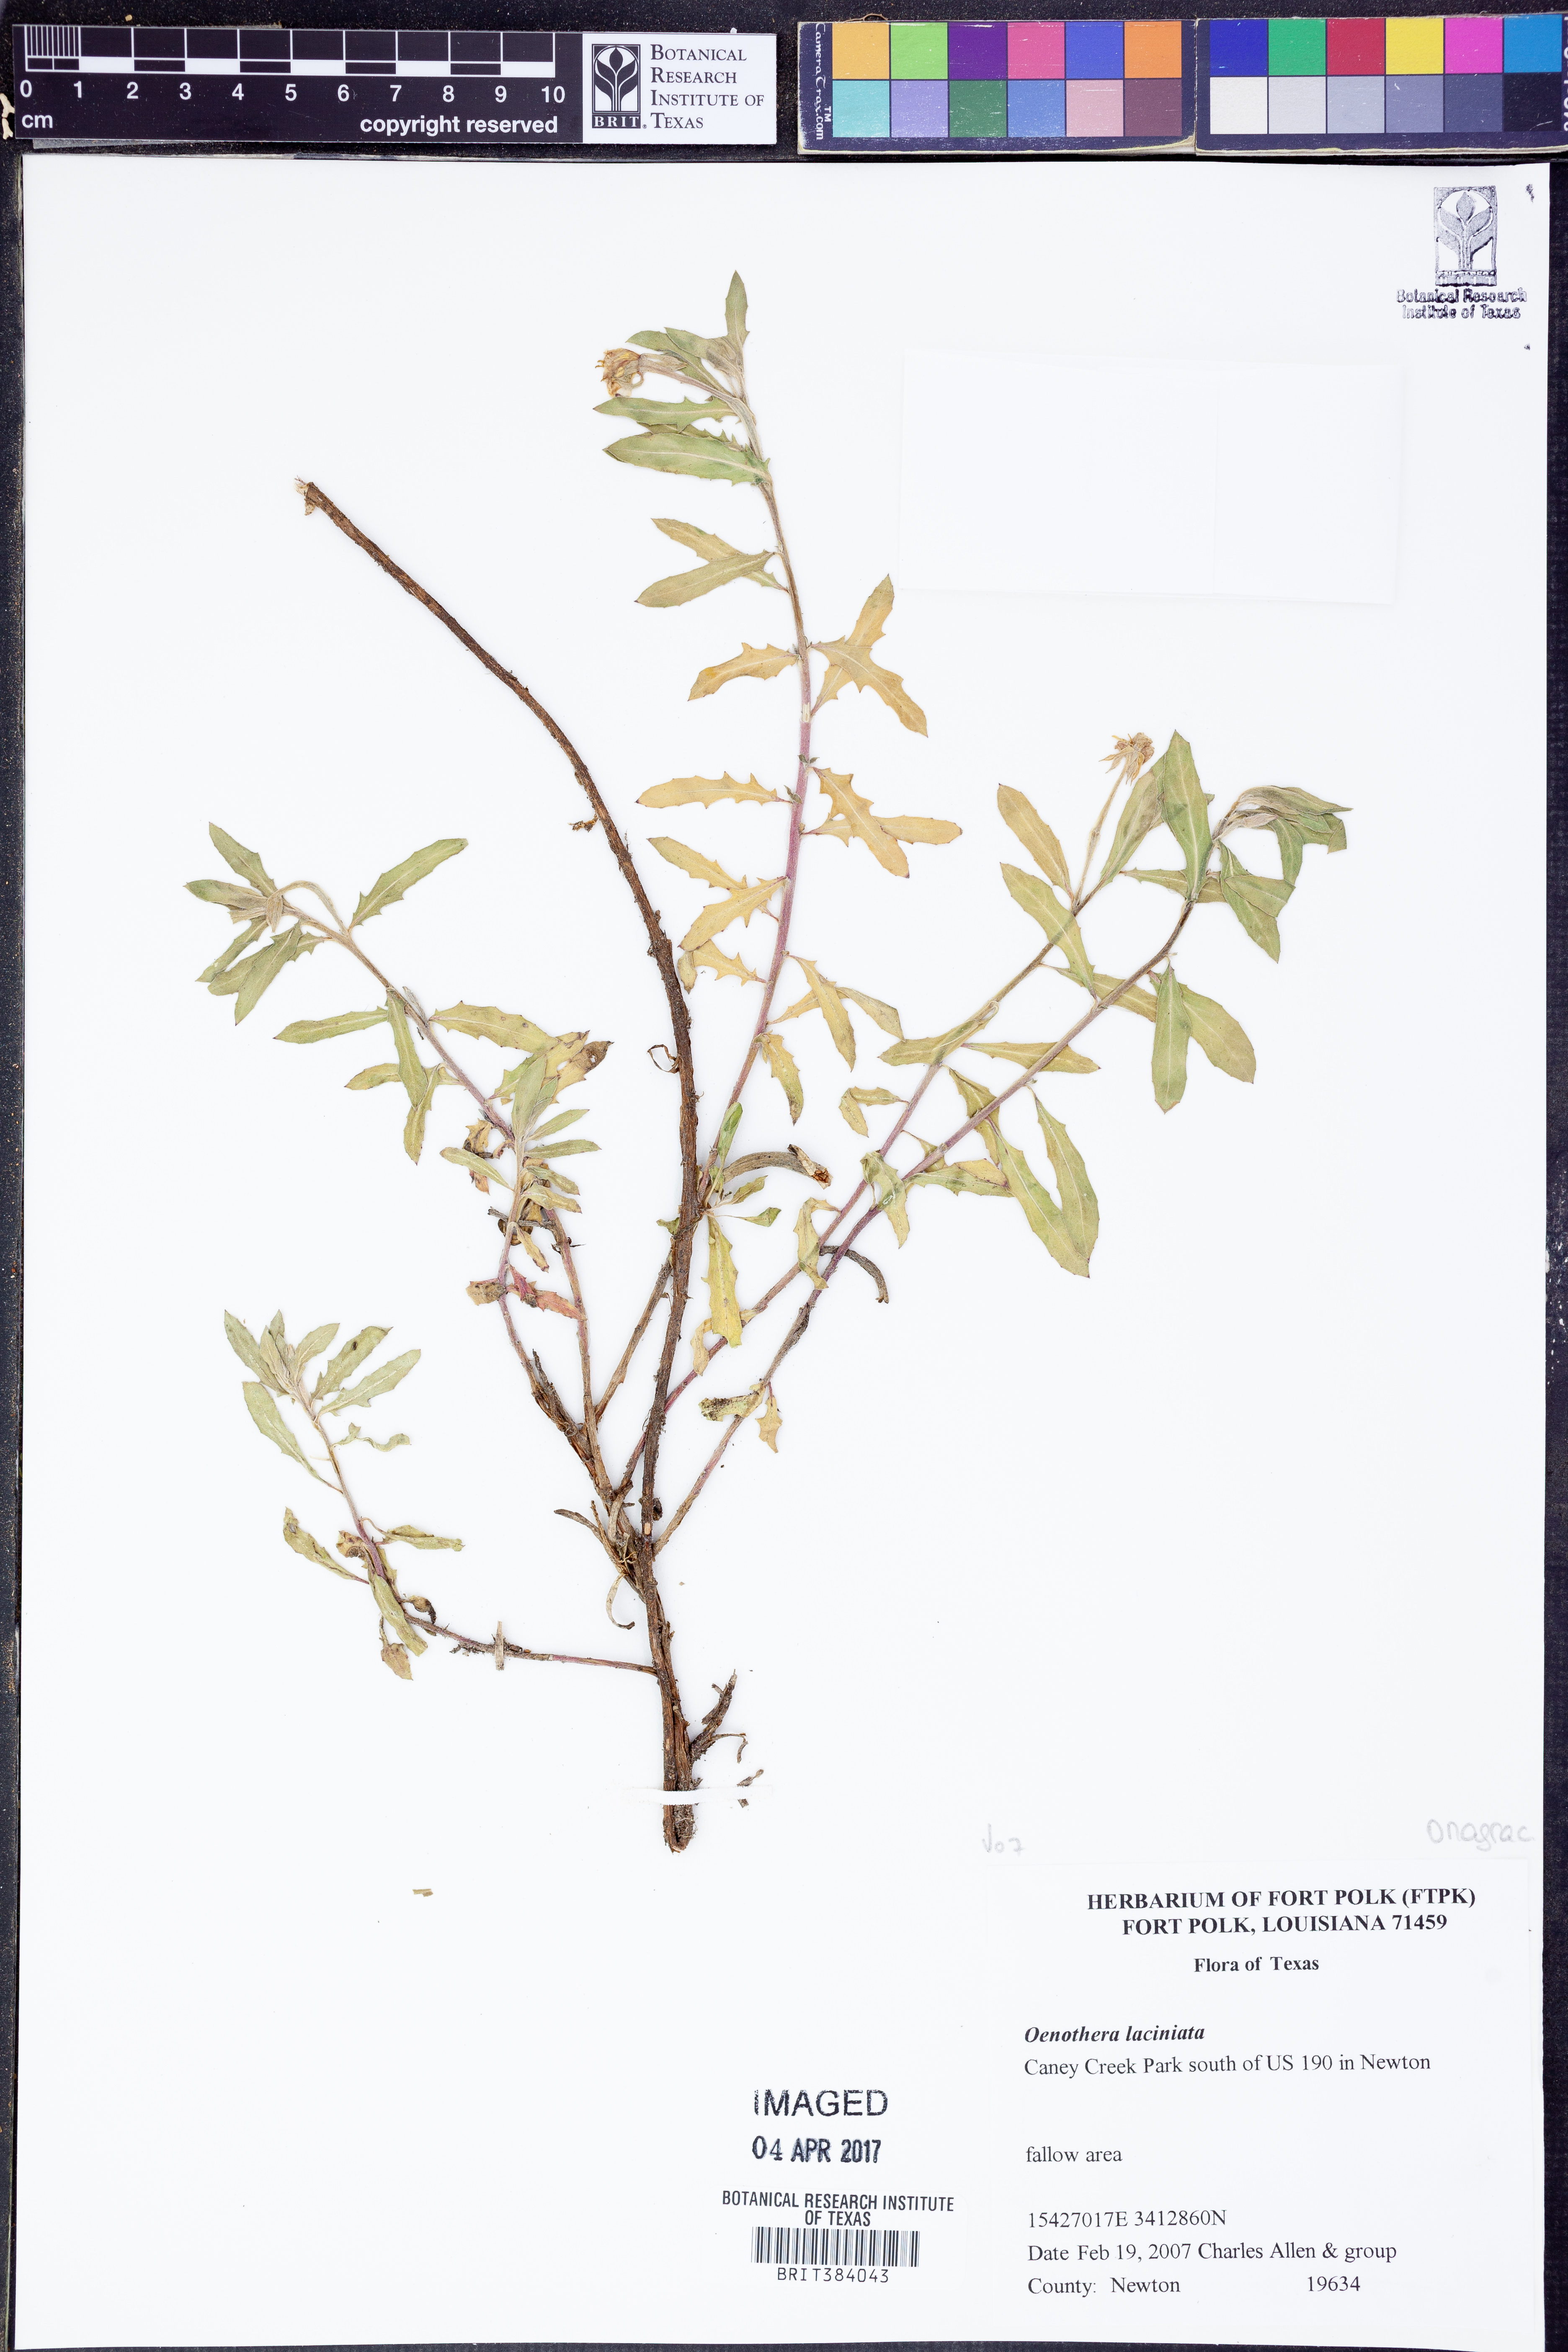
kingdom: Plantae
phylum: Tracheophyta
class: Magnoliopsida
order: Myrtales
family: Onagraceae
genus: Oenothera
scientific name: Oenothera laciniata
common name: Cut-leaved evening-primrose
